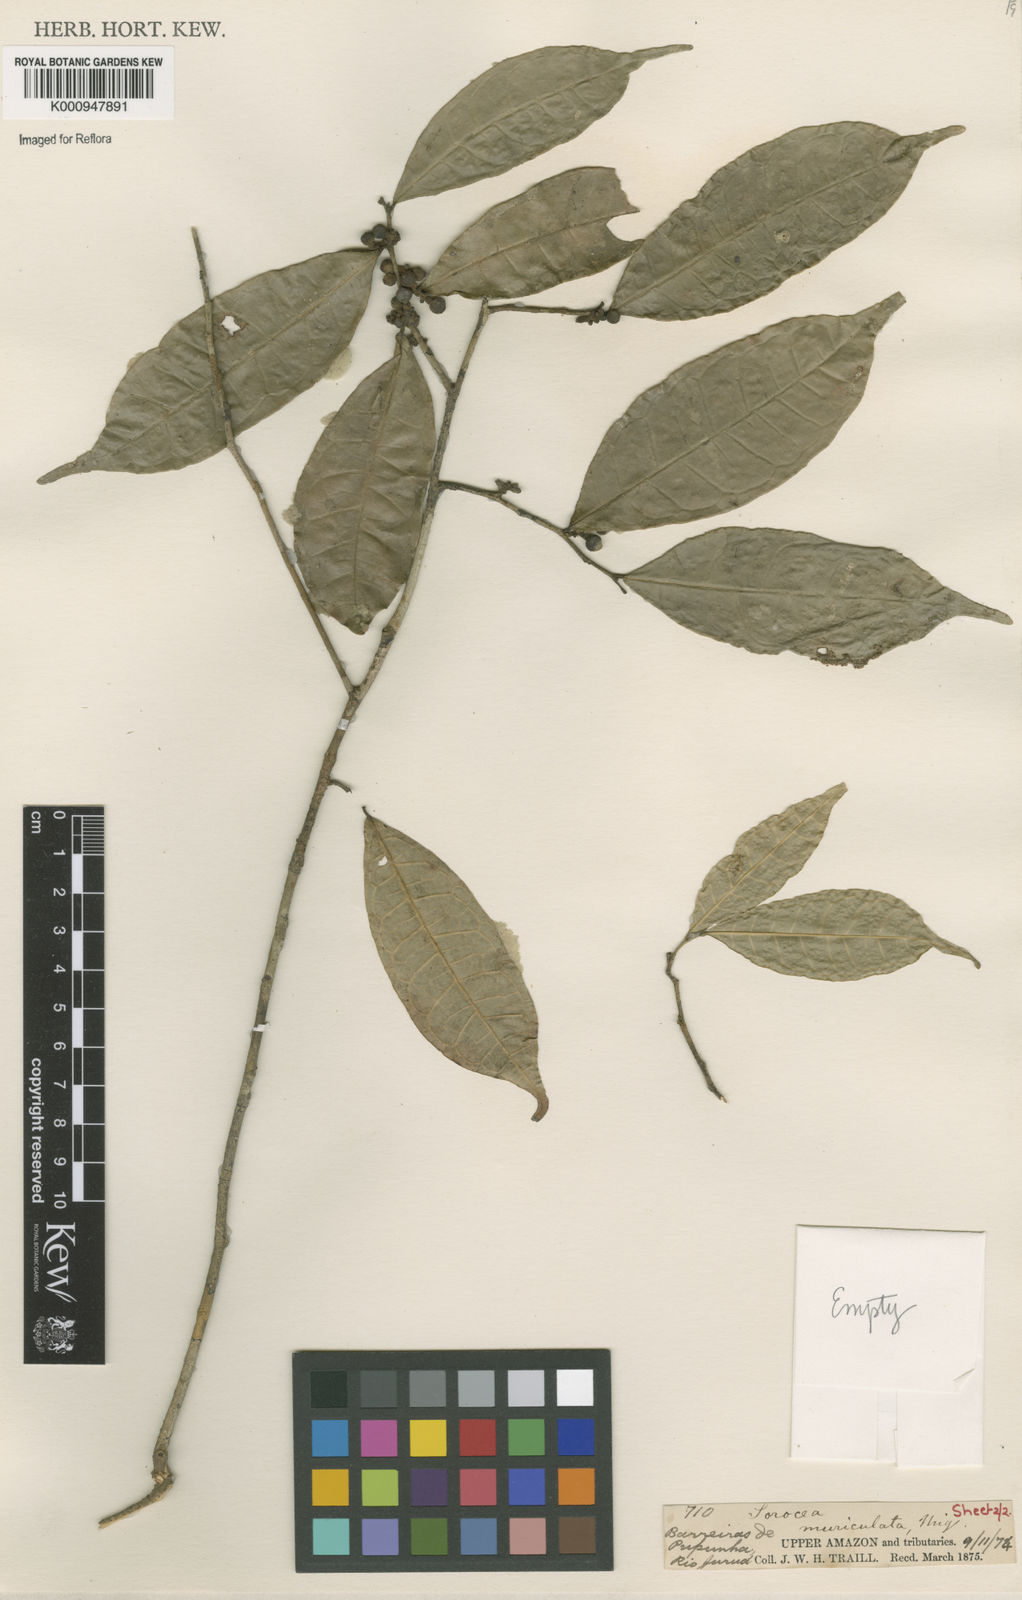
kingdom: Plantae
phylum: Tracheophyta
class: Magnoliopsida
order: Rosales
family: Moraceae
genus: Sorocea
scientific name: Sorocea muriculata
